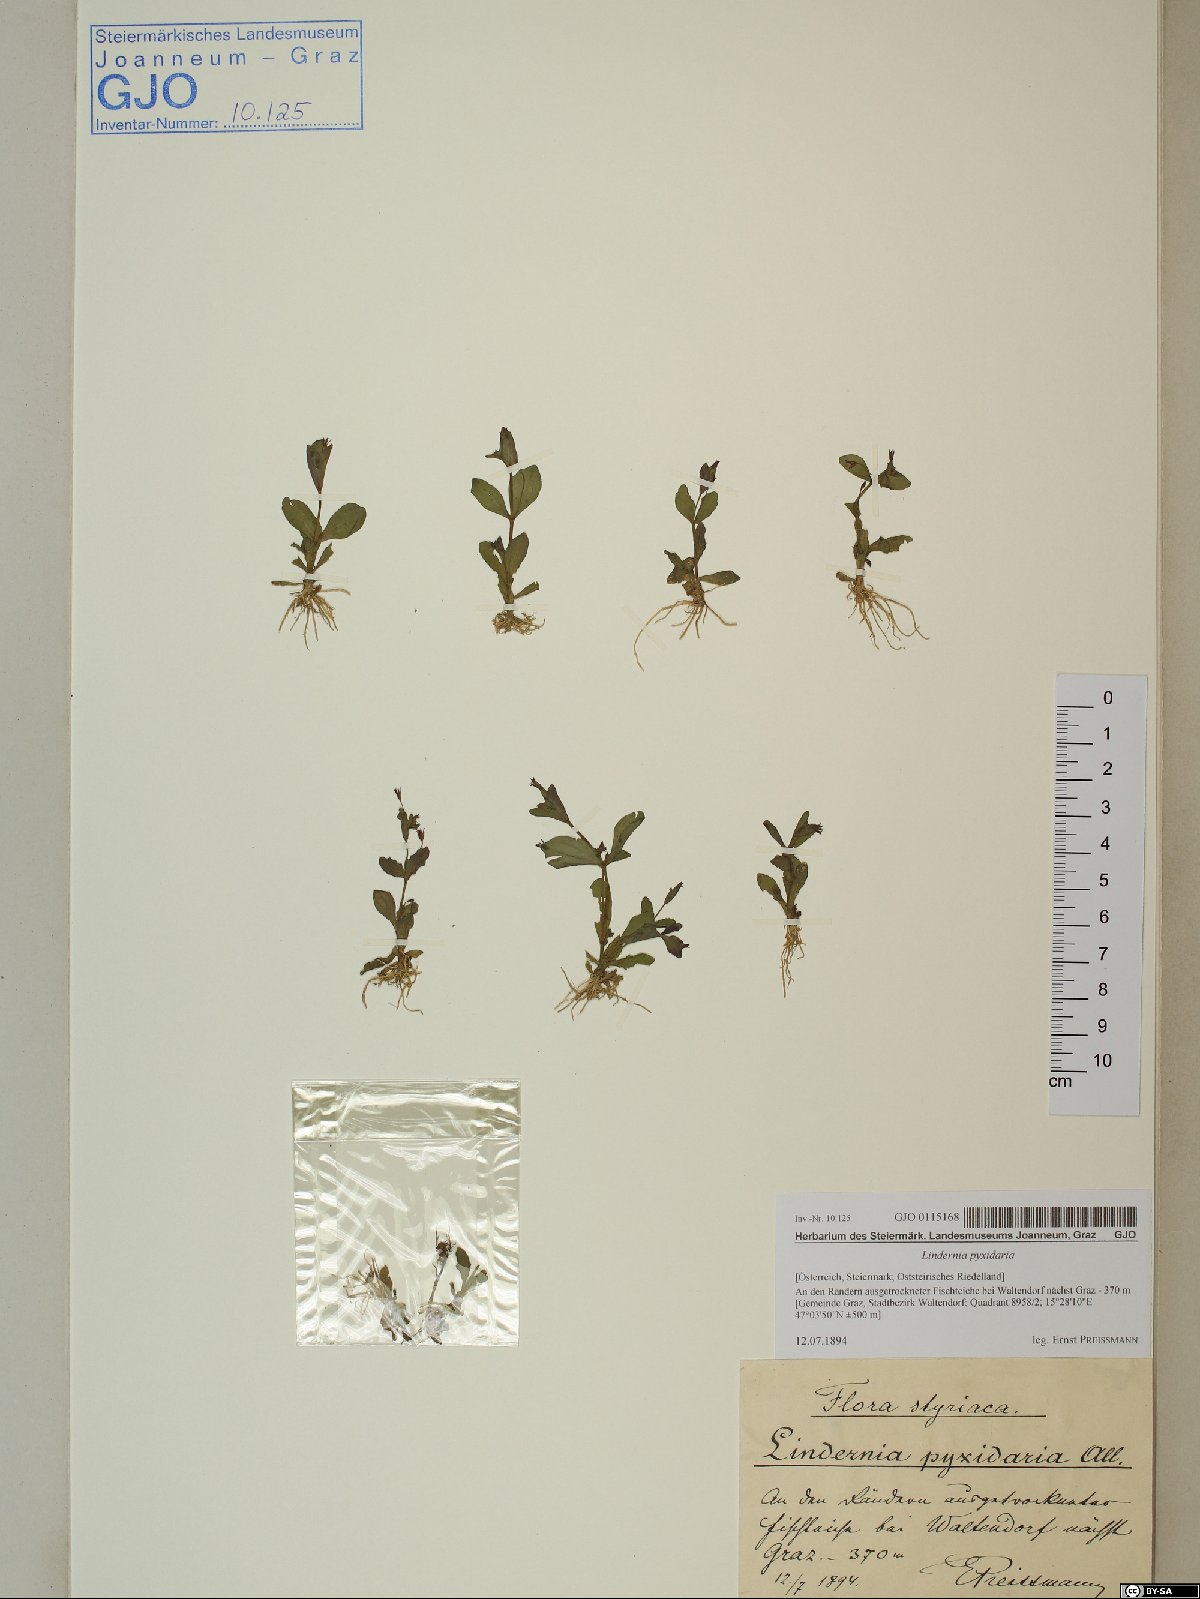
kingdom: Plantae
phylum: Tracheophyta
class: Magnoliopsida
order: Lamiales
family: Linderniaceae
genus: Lindernia
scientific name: Lindernia dubia
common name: Annual false pimpernel
